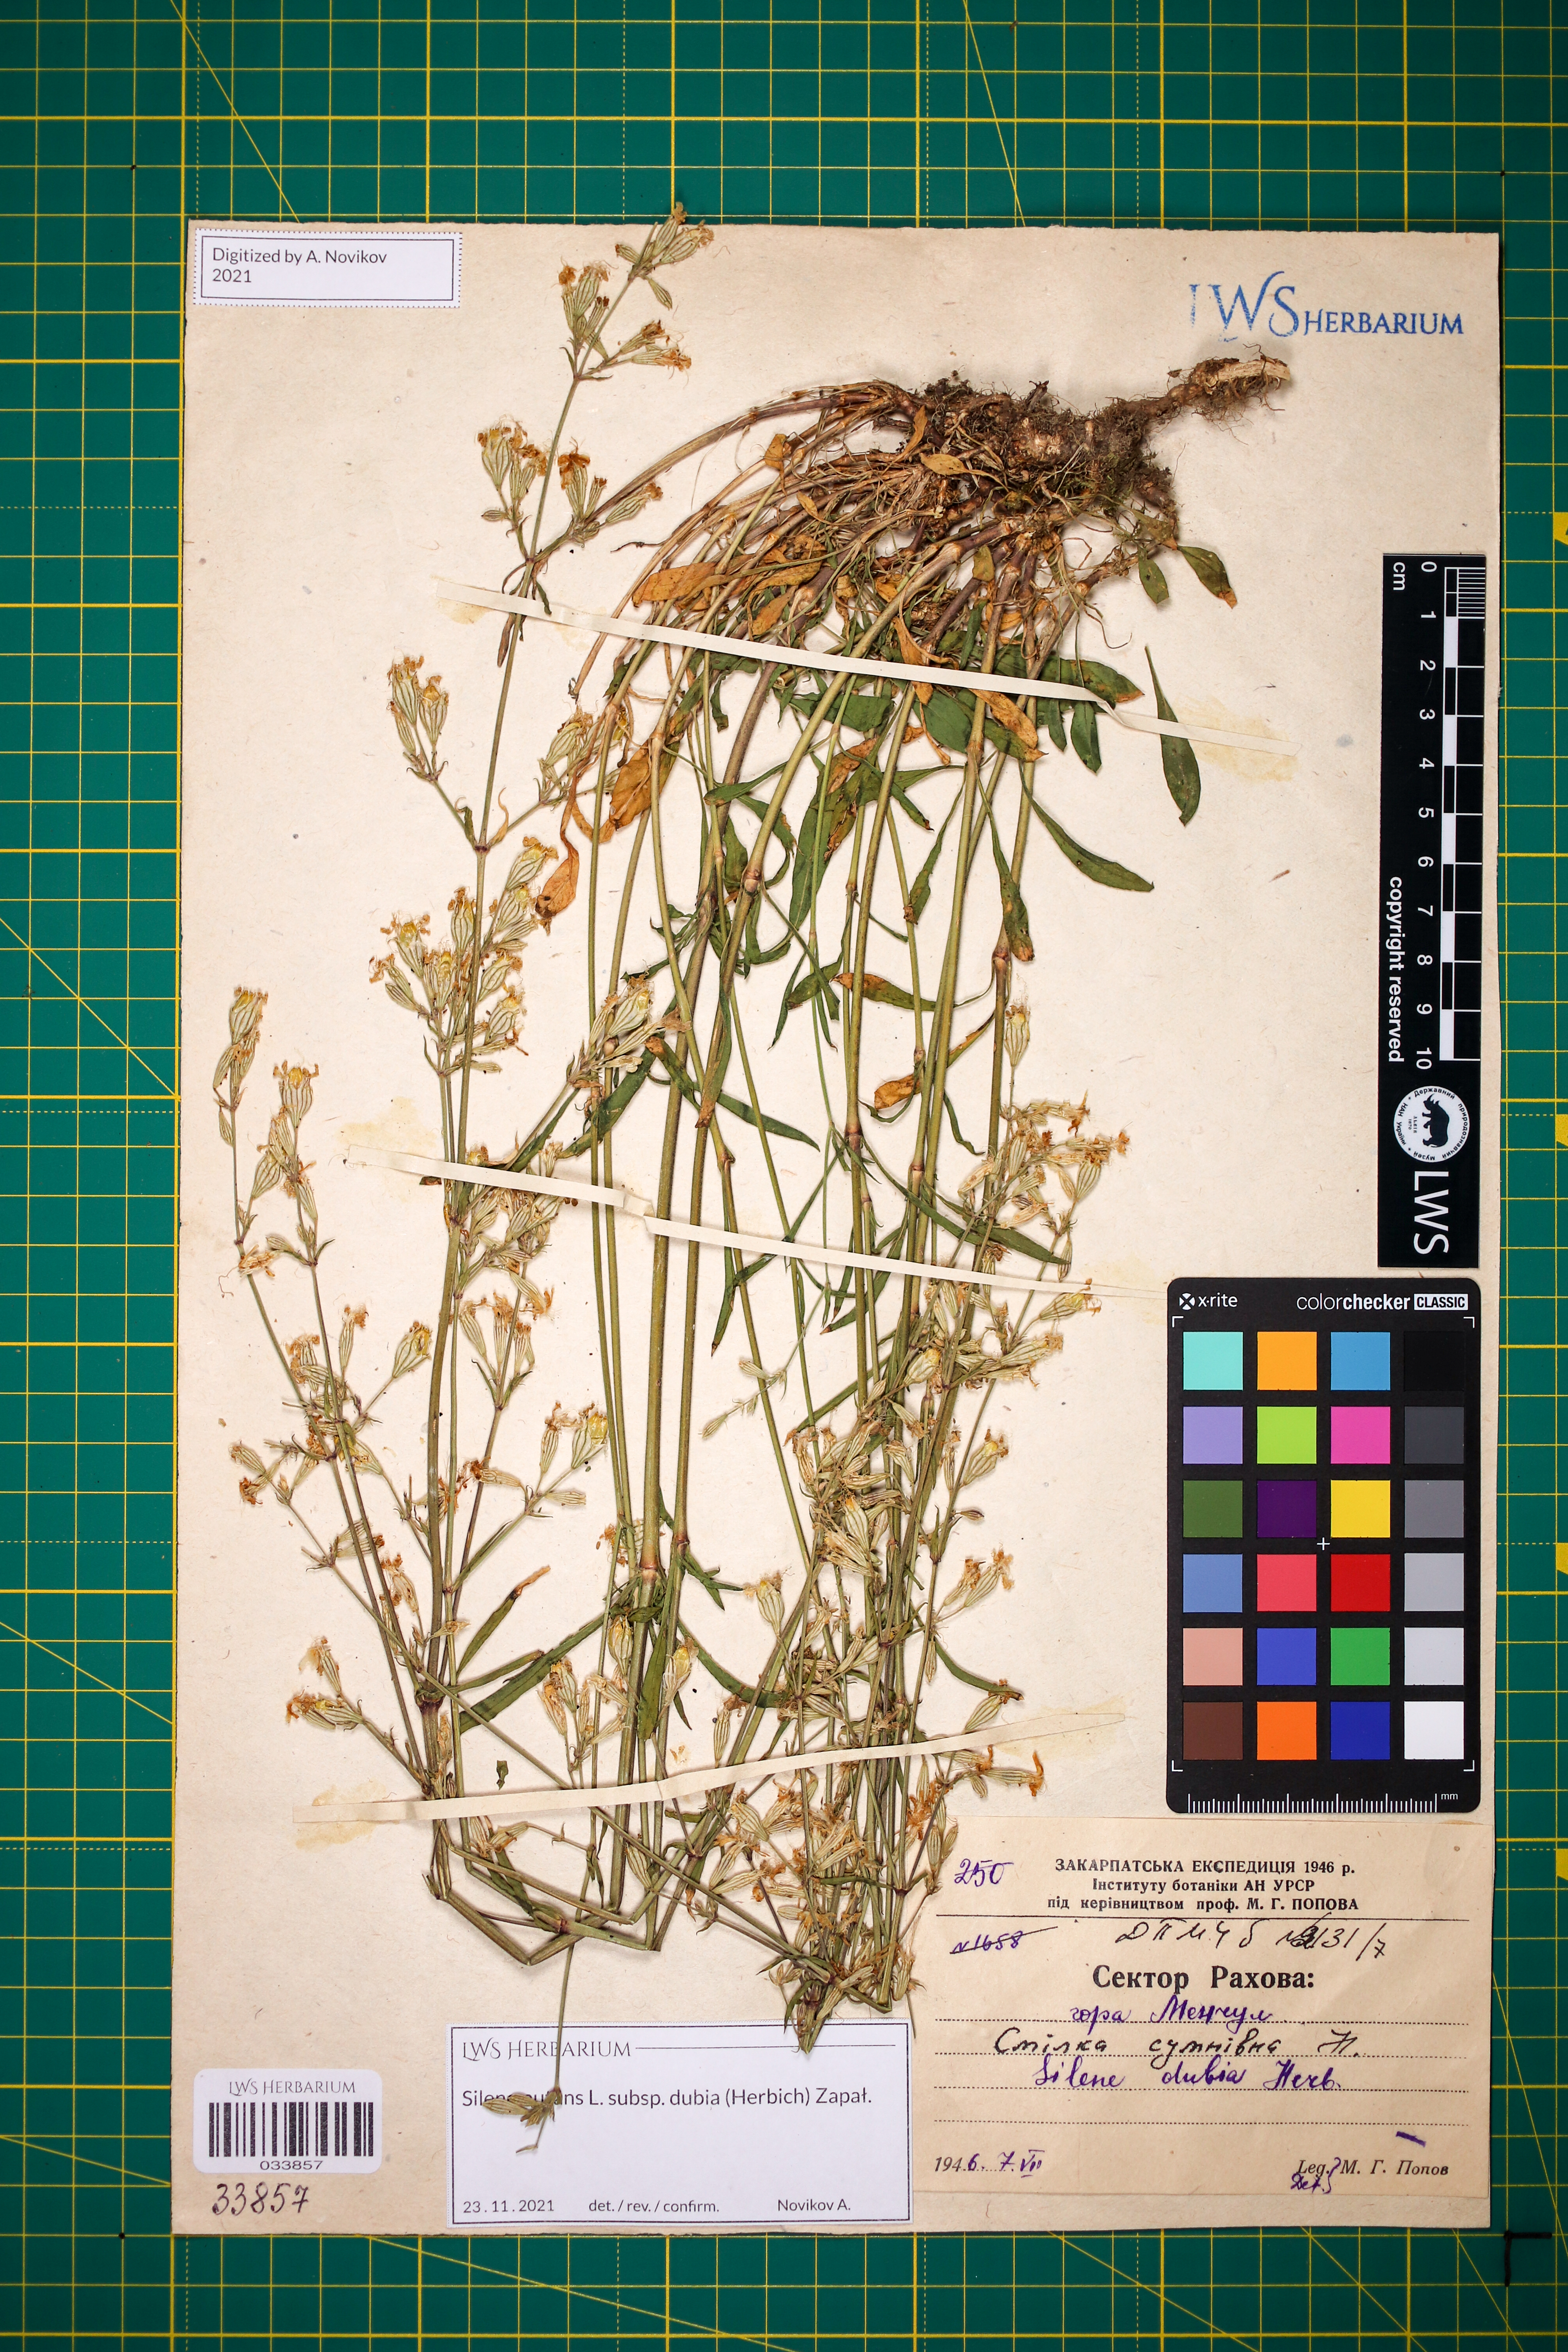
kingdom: Plantae
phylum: Tracheophyta
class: Magnoliopsida
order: Caryophyllales
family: Caryophyllaceae
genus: Silene
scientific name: Silene nutans
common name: Nottingham catchfly
